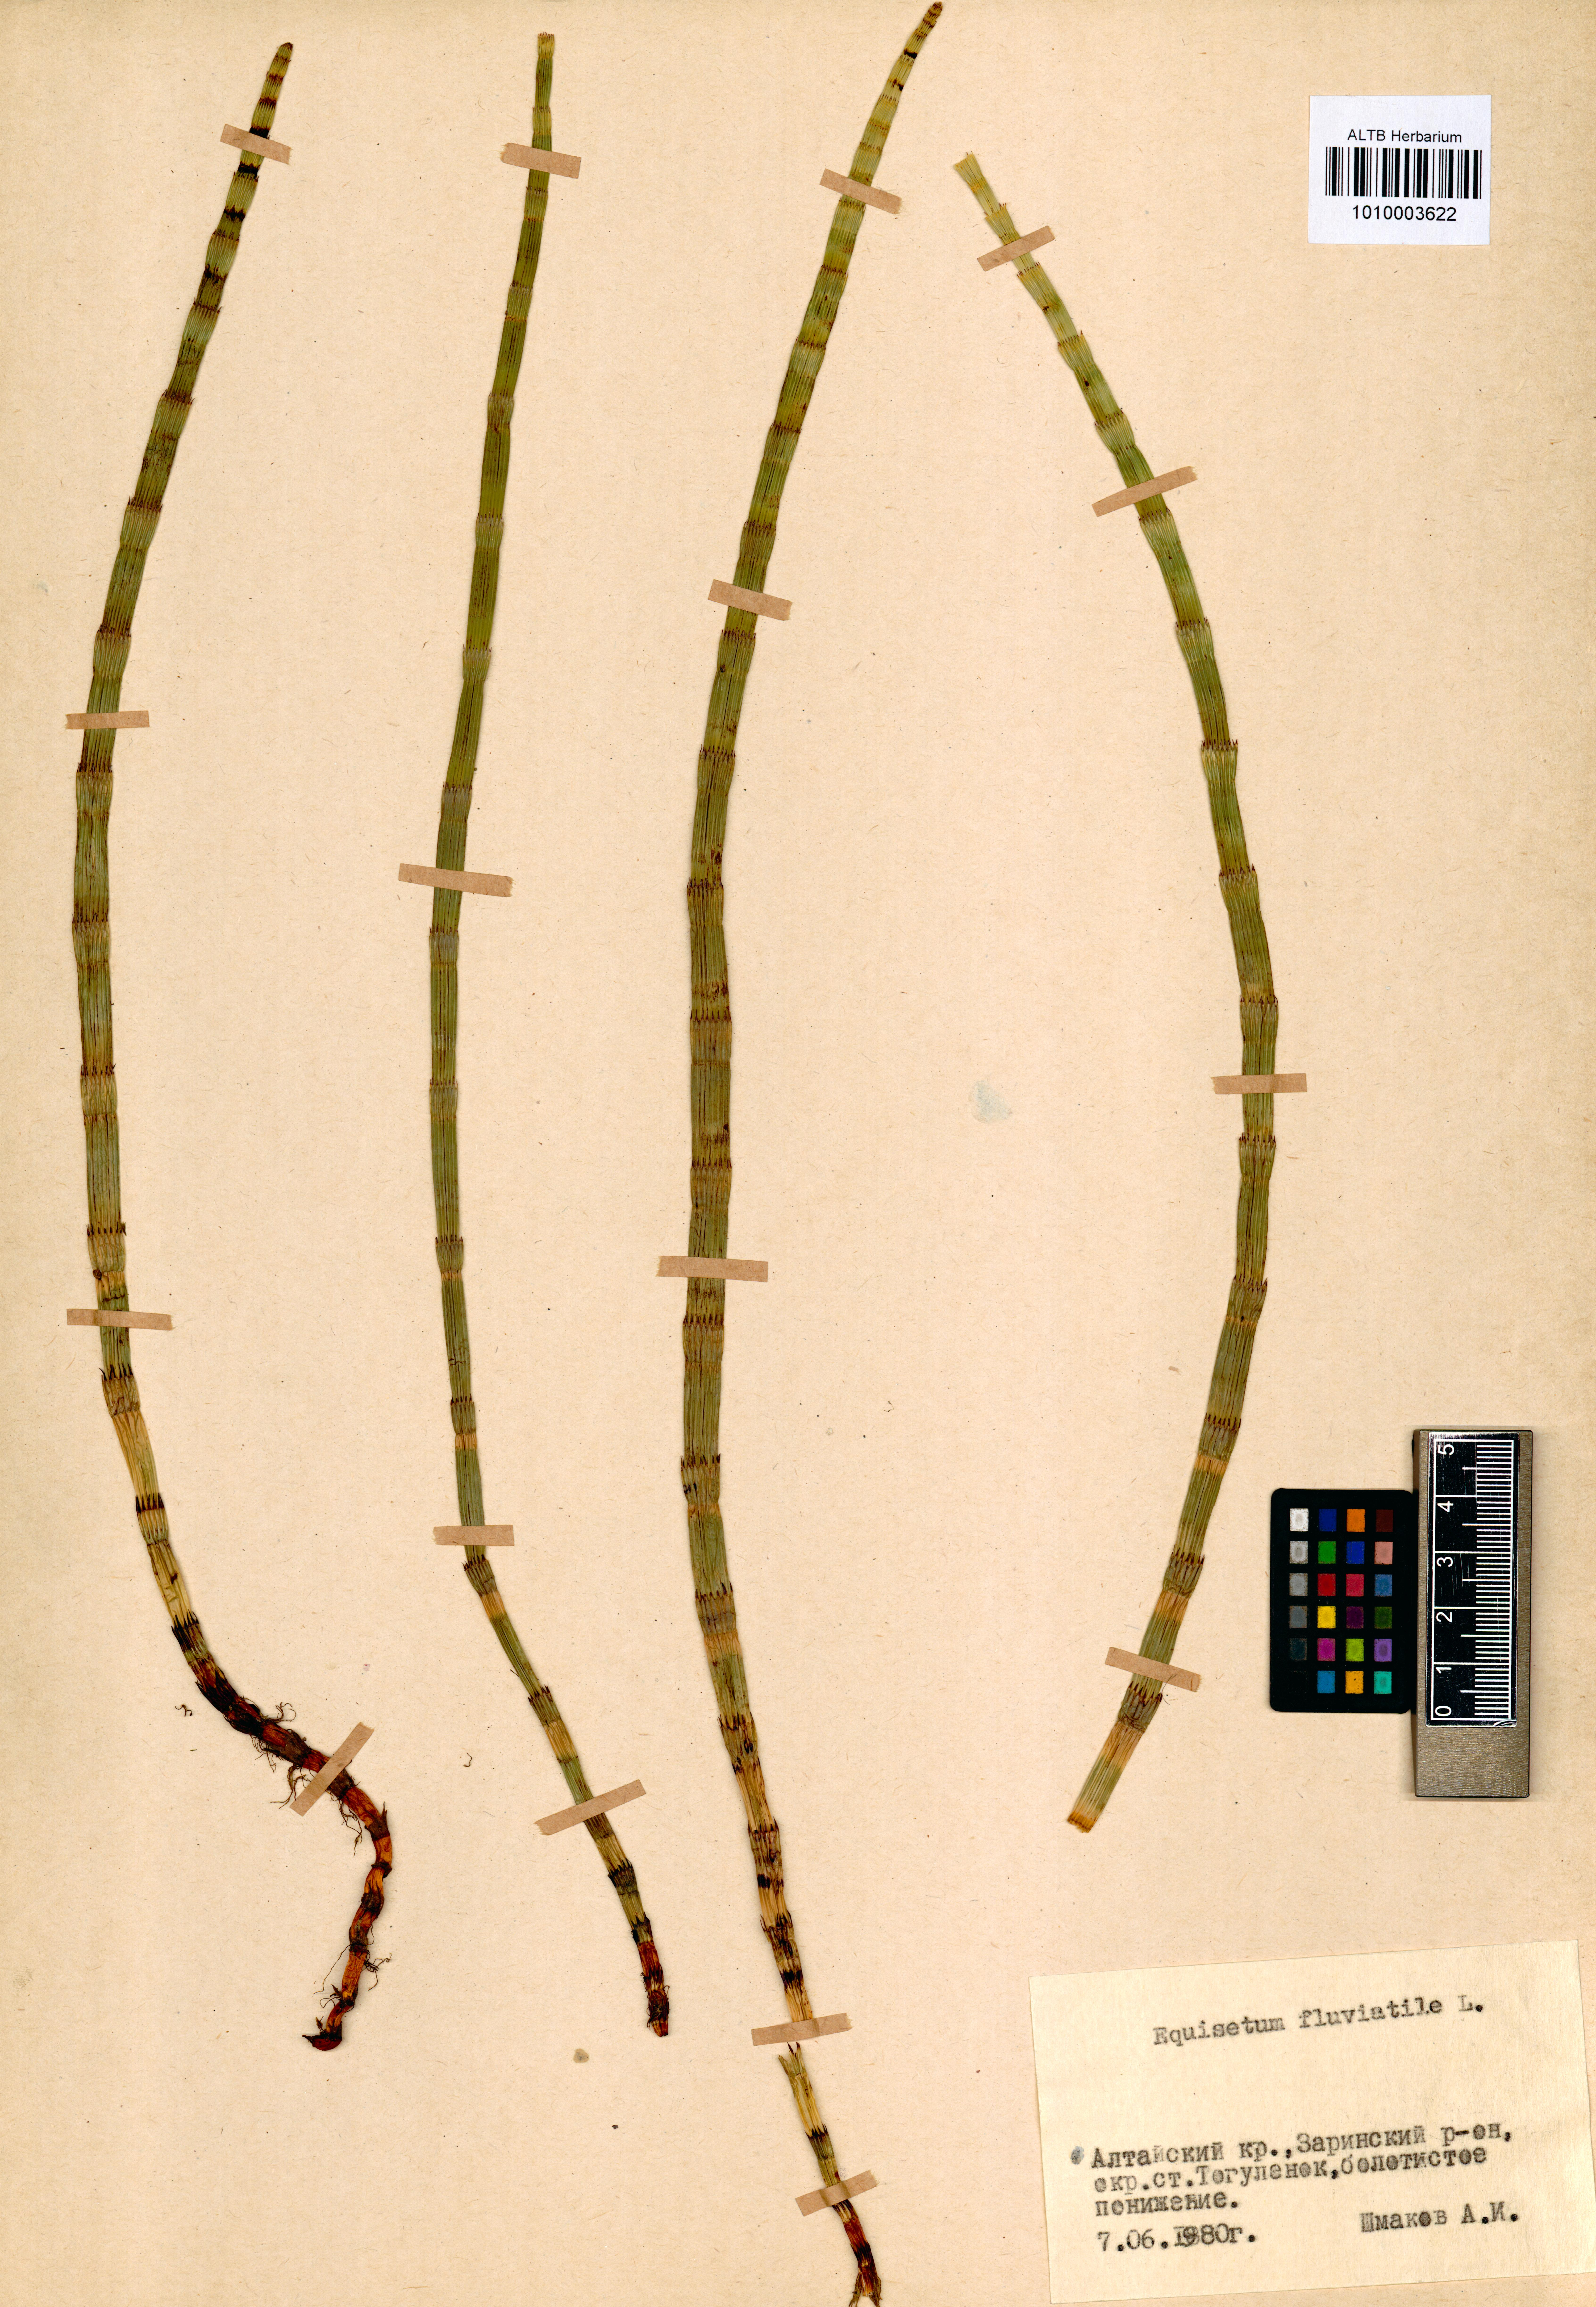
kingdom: Plantae
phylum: Tracheophyta
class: Polypodiopsida
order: Equisetales
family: Equisetaceae
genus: Equisetum
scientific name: Equisetum fluviatile
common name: Water horsetail
